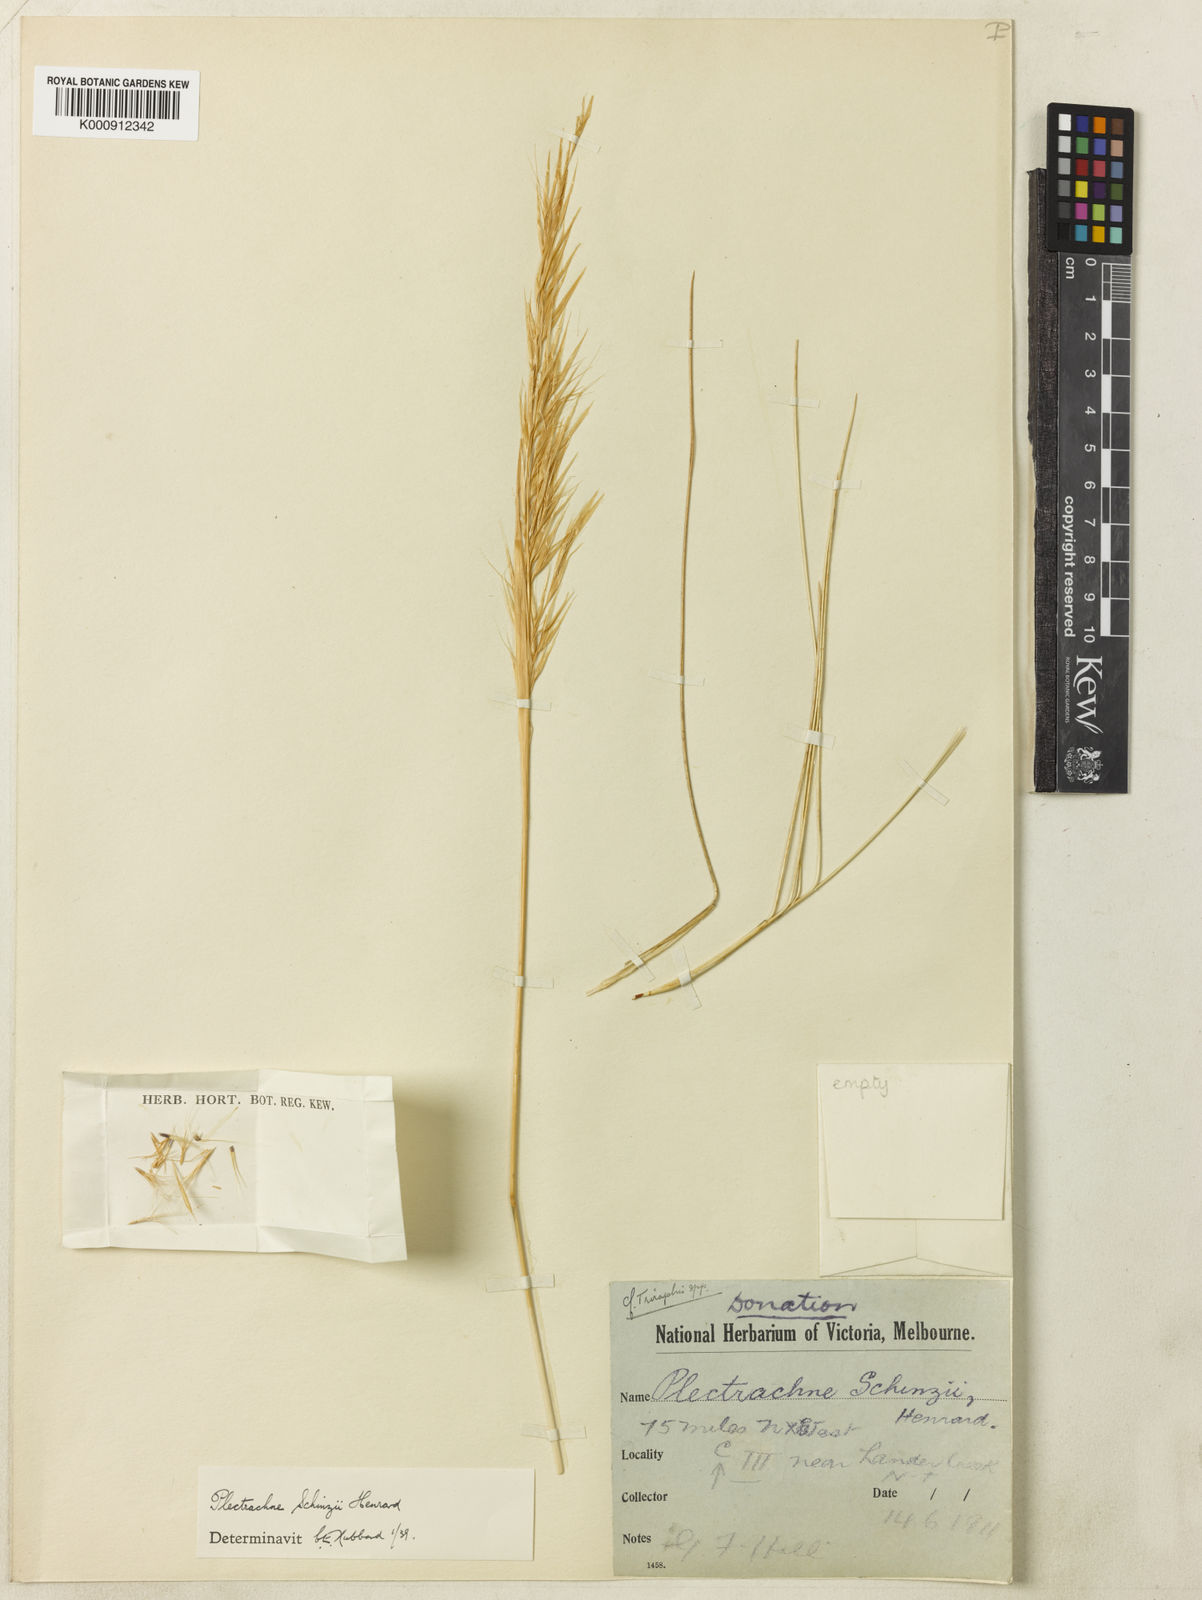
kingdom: Plantae
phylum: Tracheophyta
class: Liliopsida
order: Poales
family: Poaceae
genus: Triodia
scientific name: Triodia schinzii
